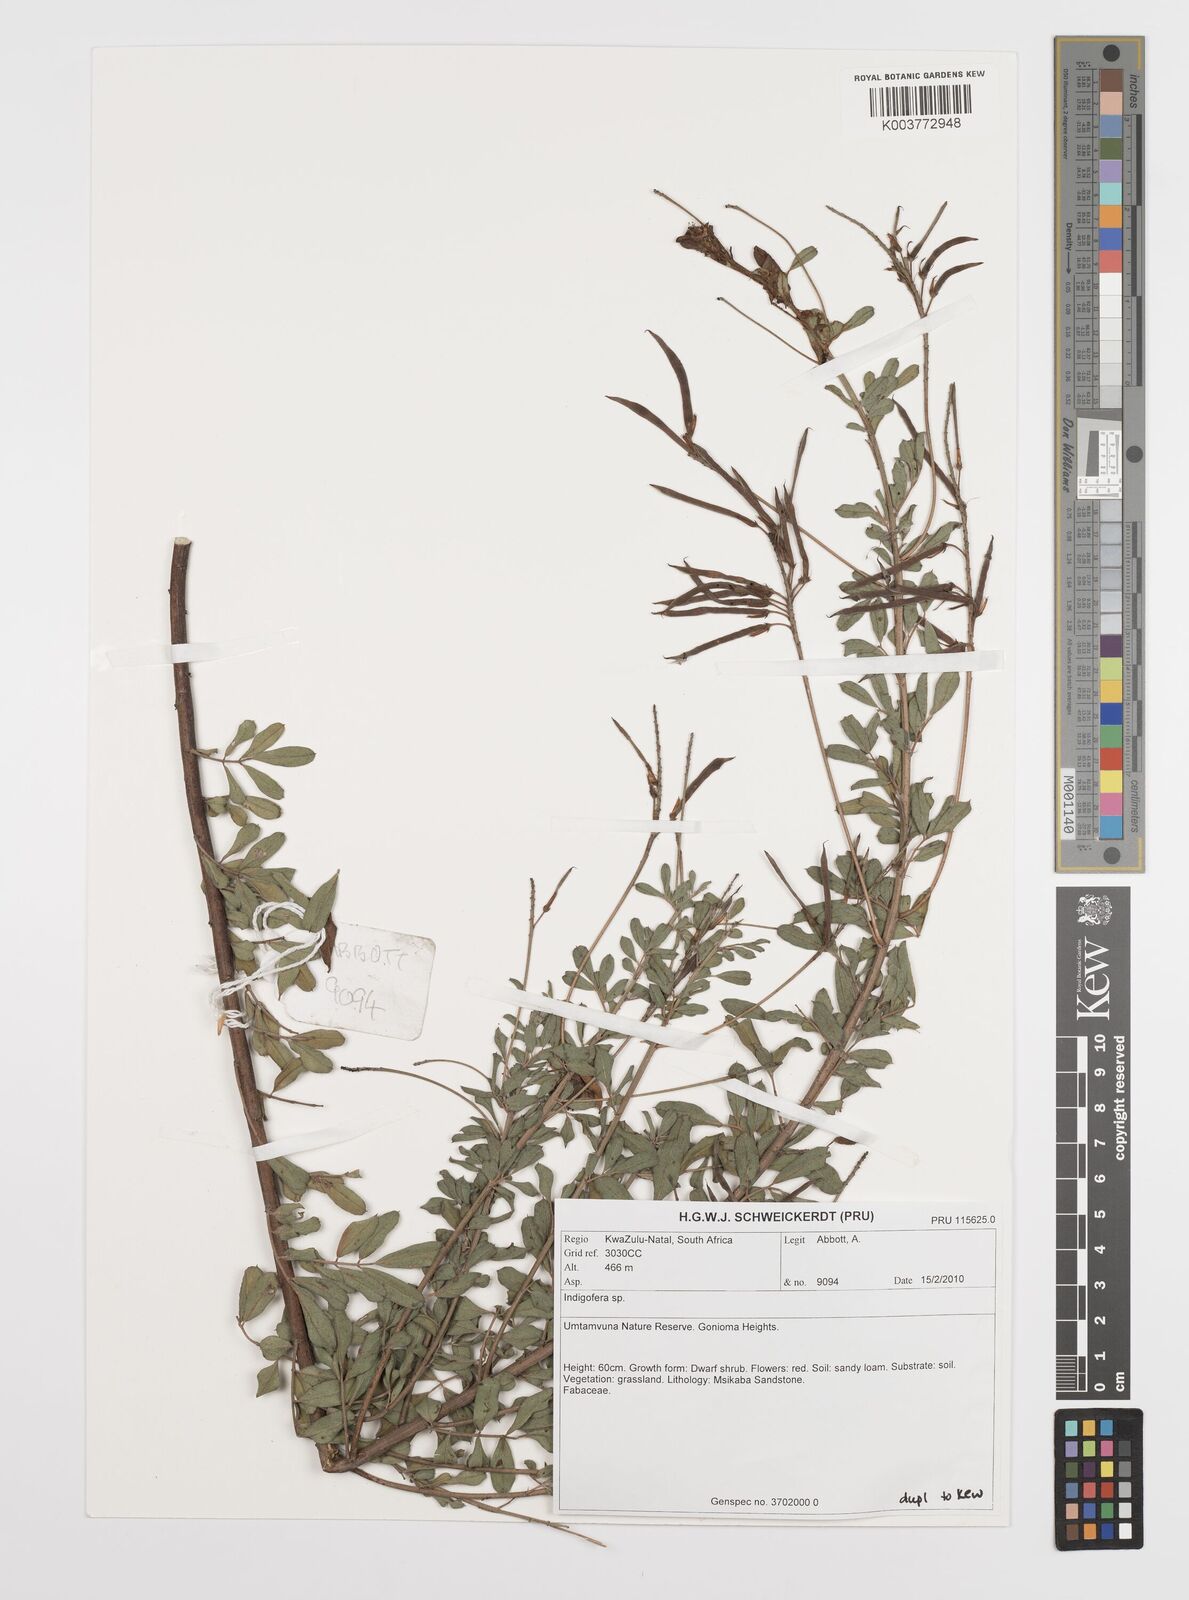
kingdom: Plantae
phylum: Tracheophyta
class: Magnoliopsida
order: Fabales
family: Fabaceae
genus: Indigofera
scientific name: Indigofera
